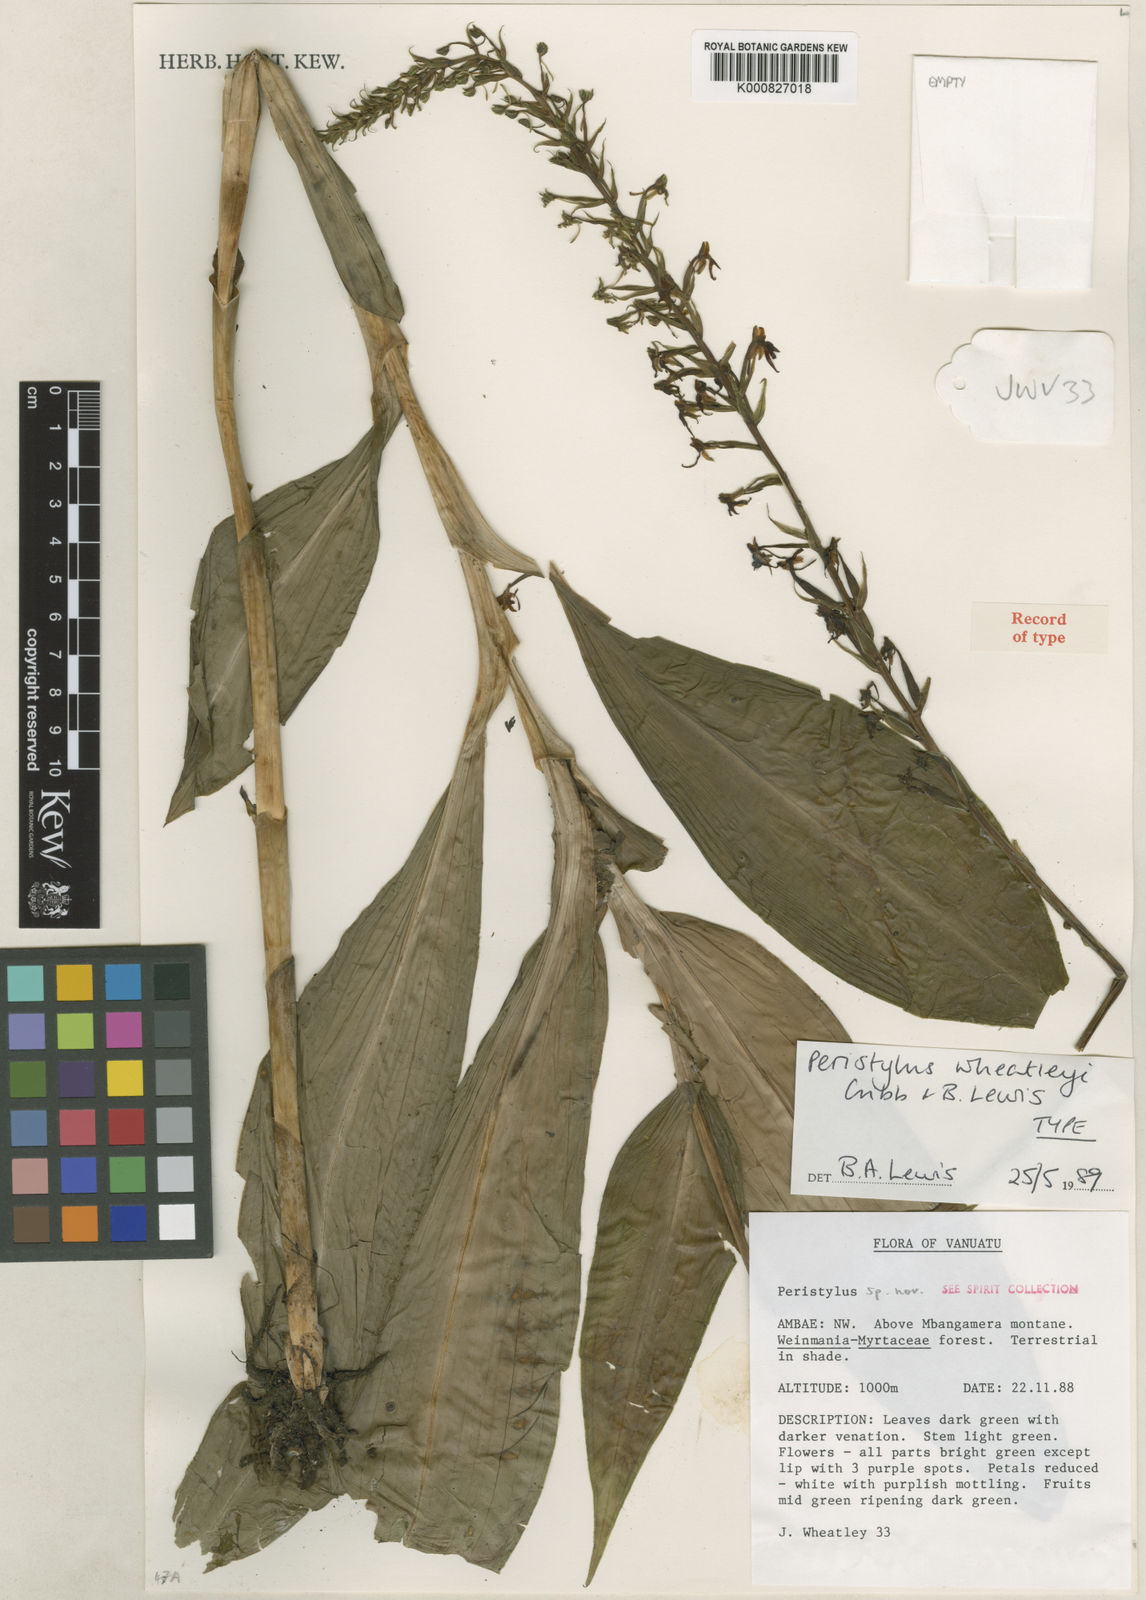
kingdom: Plantae
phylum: Tracheophyta
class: Liliopsida
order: Asparagales
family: Orchidaceae
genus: Peristylus
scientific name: Peristylus wheatleyi
